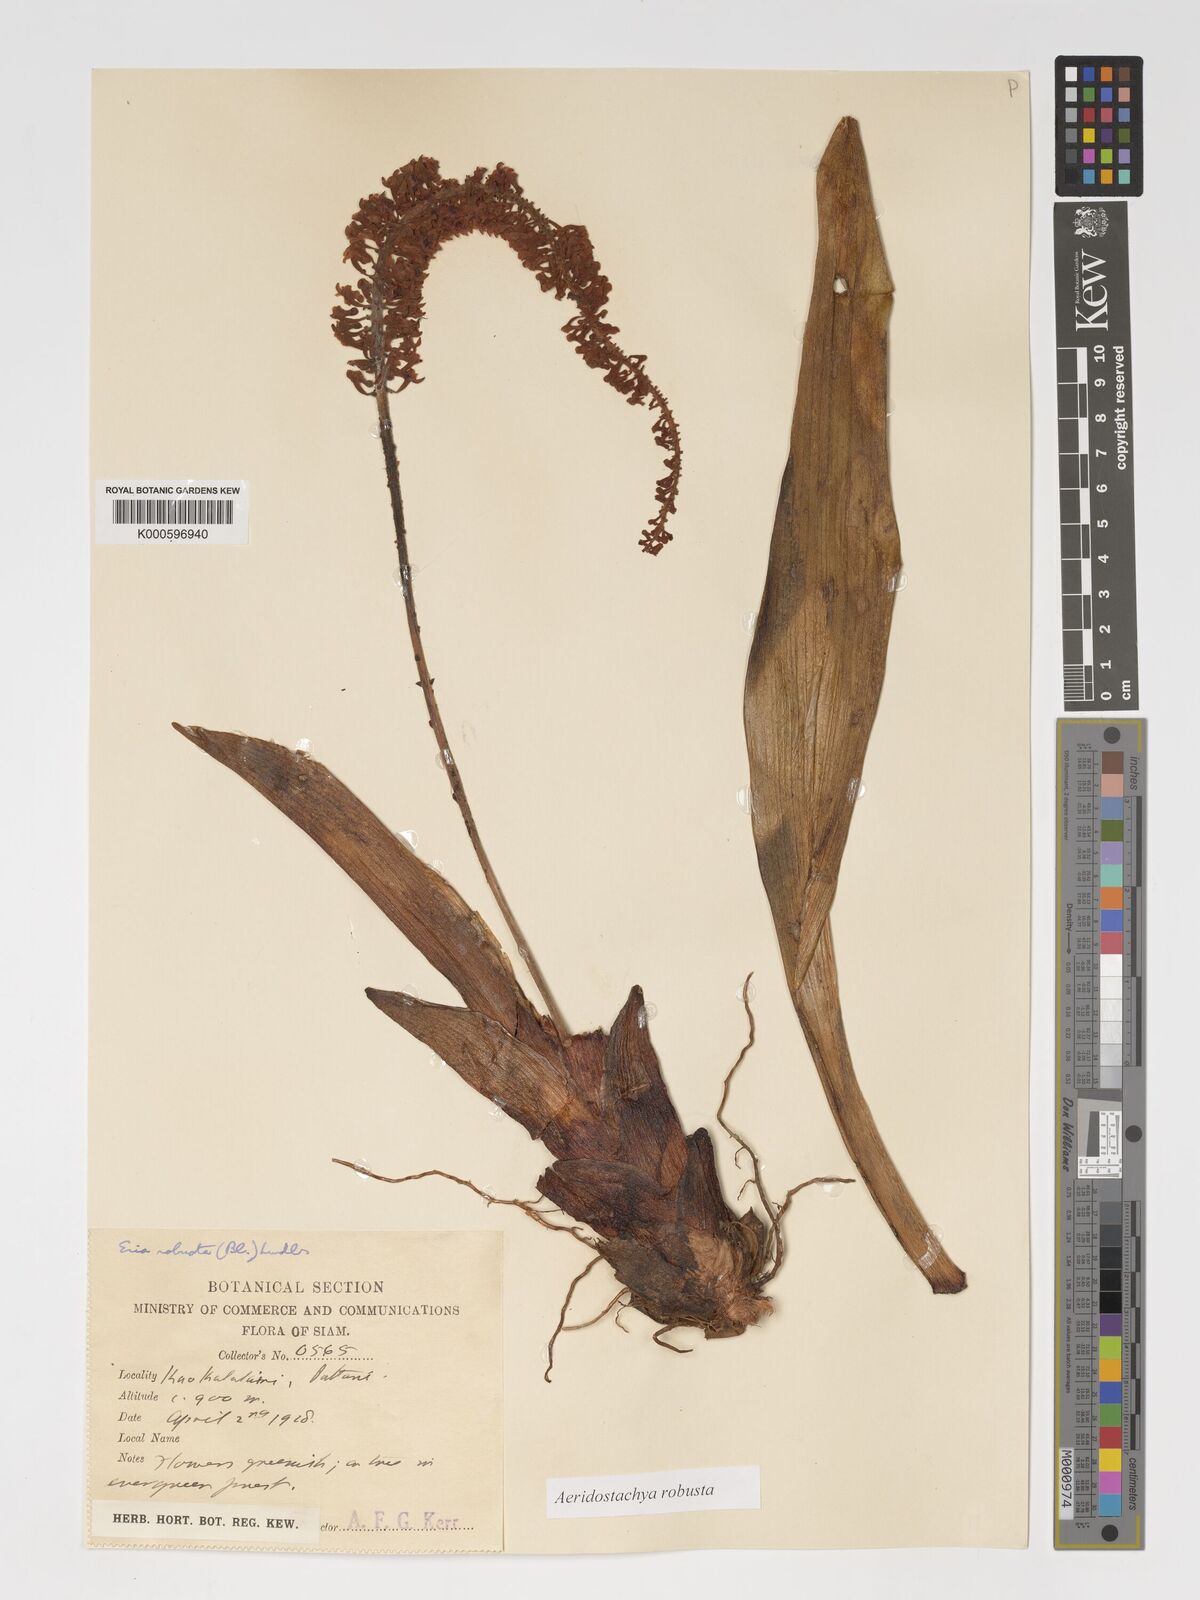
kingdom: Plantae
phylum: Tracheophyta
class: Liliopsida
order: Asparagales
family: Orchidaceae
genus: Aeridostachya
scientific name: Aeridostachya robusta
